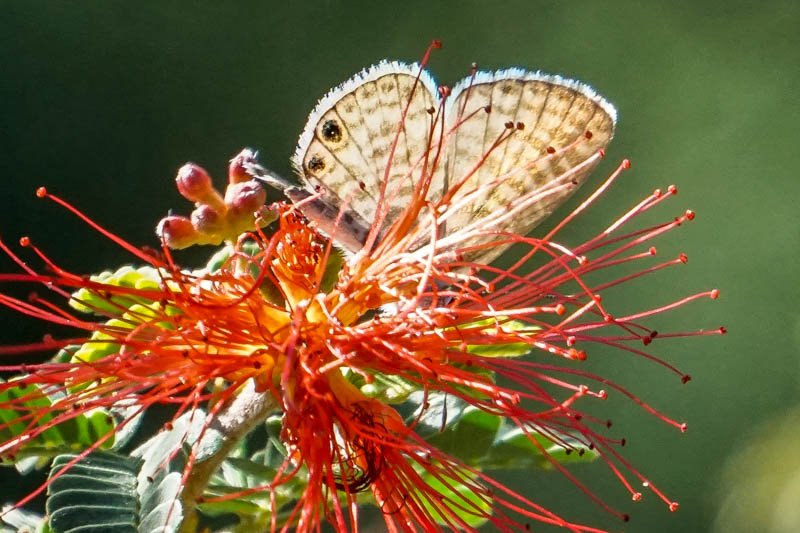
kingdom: Animalia
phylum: Arthropoda
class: Insecta
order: Lepidoptera
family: Lycaenidae
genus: Leptotes
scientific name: Leptotes marina
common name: Marine Blue
